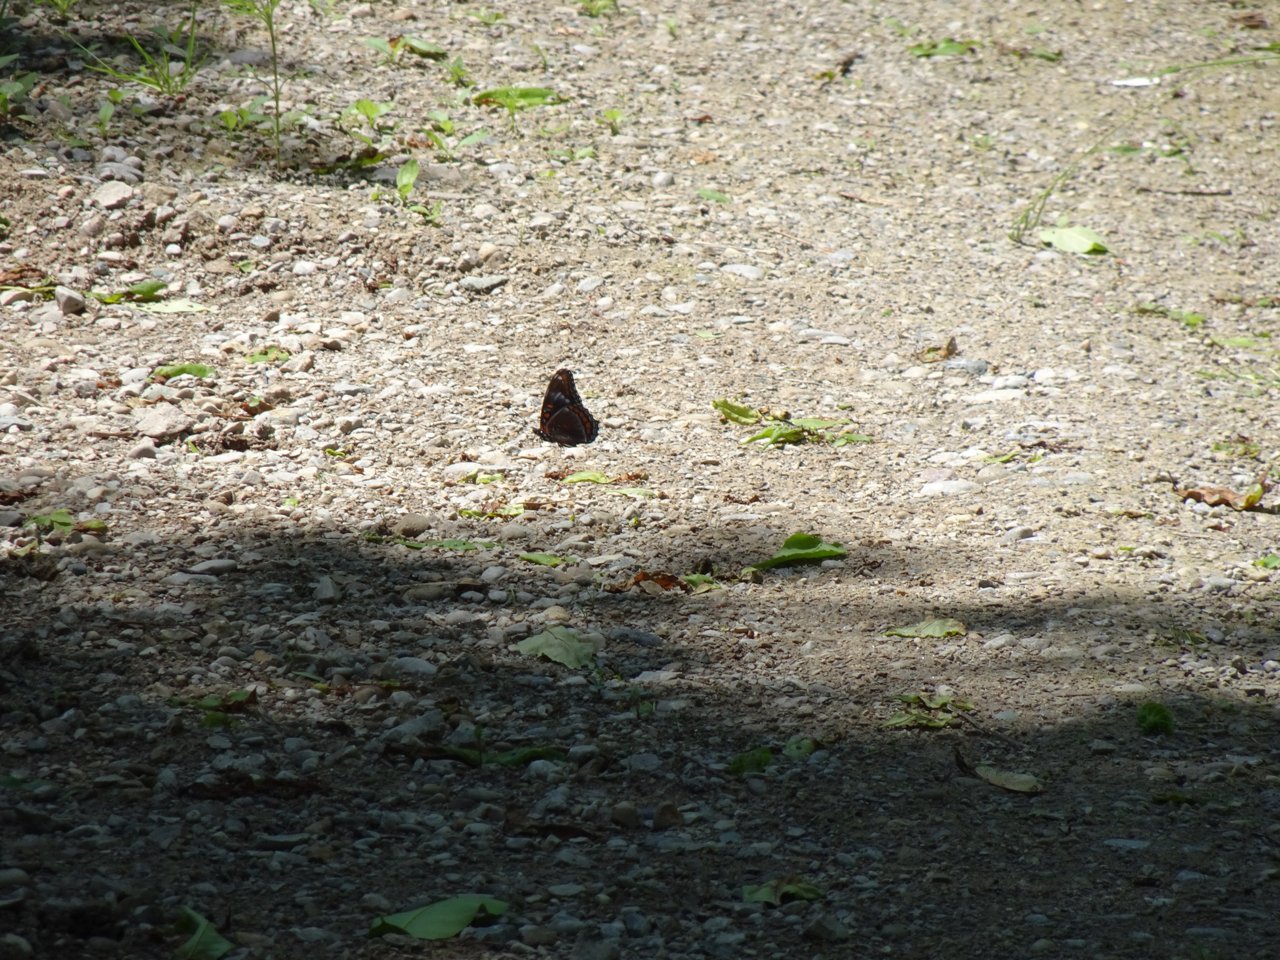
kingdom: Animalia
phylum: Arthropoda
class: Insecta
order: Lepidoptera
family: Nymphalidae
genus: Limenitis
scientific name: Limenitis astyanax
